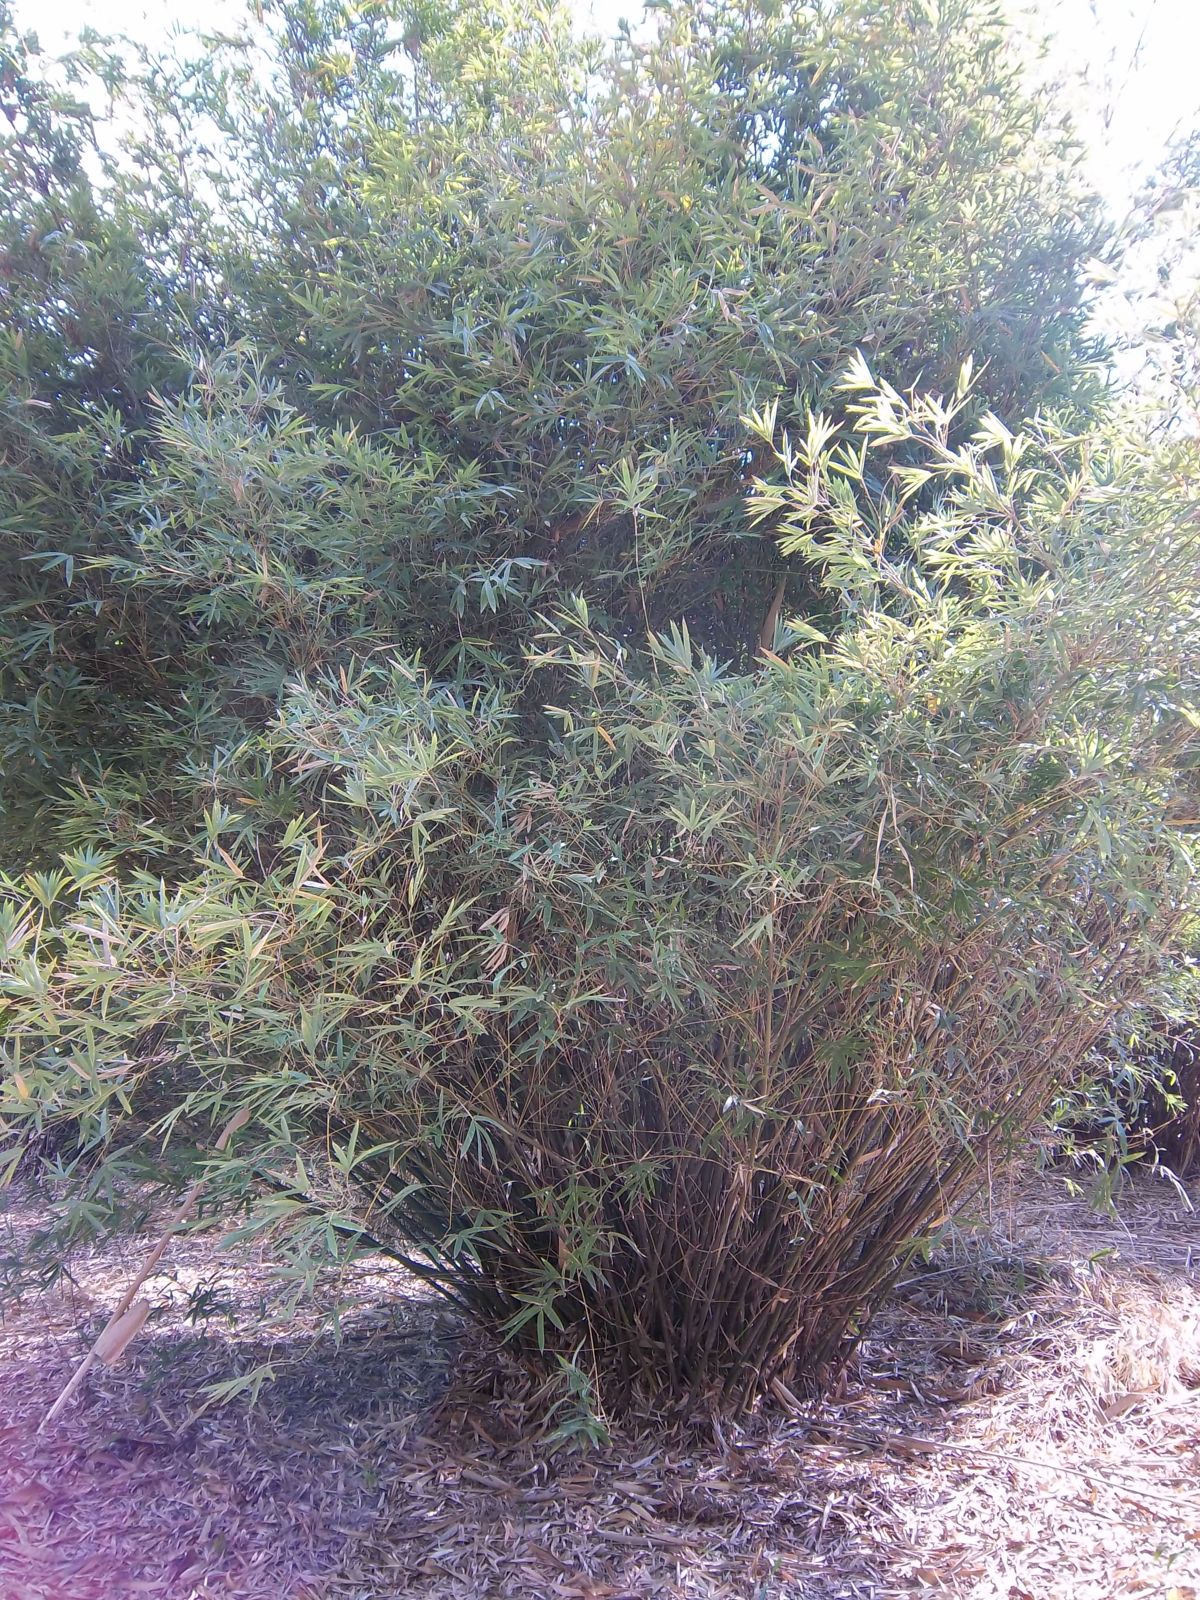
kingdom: Plantae
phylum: Tracheophyta
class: Liliopsida
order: Poales
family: Poaceae
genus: Bambusa
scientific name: Bambusa textilis
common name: Weaver's bamboo
